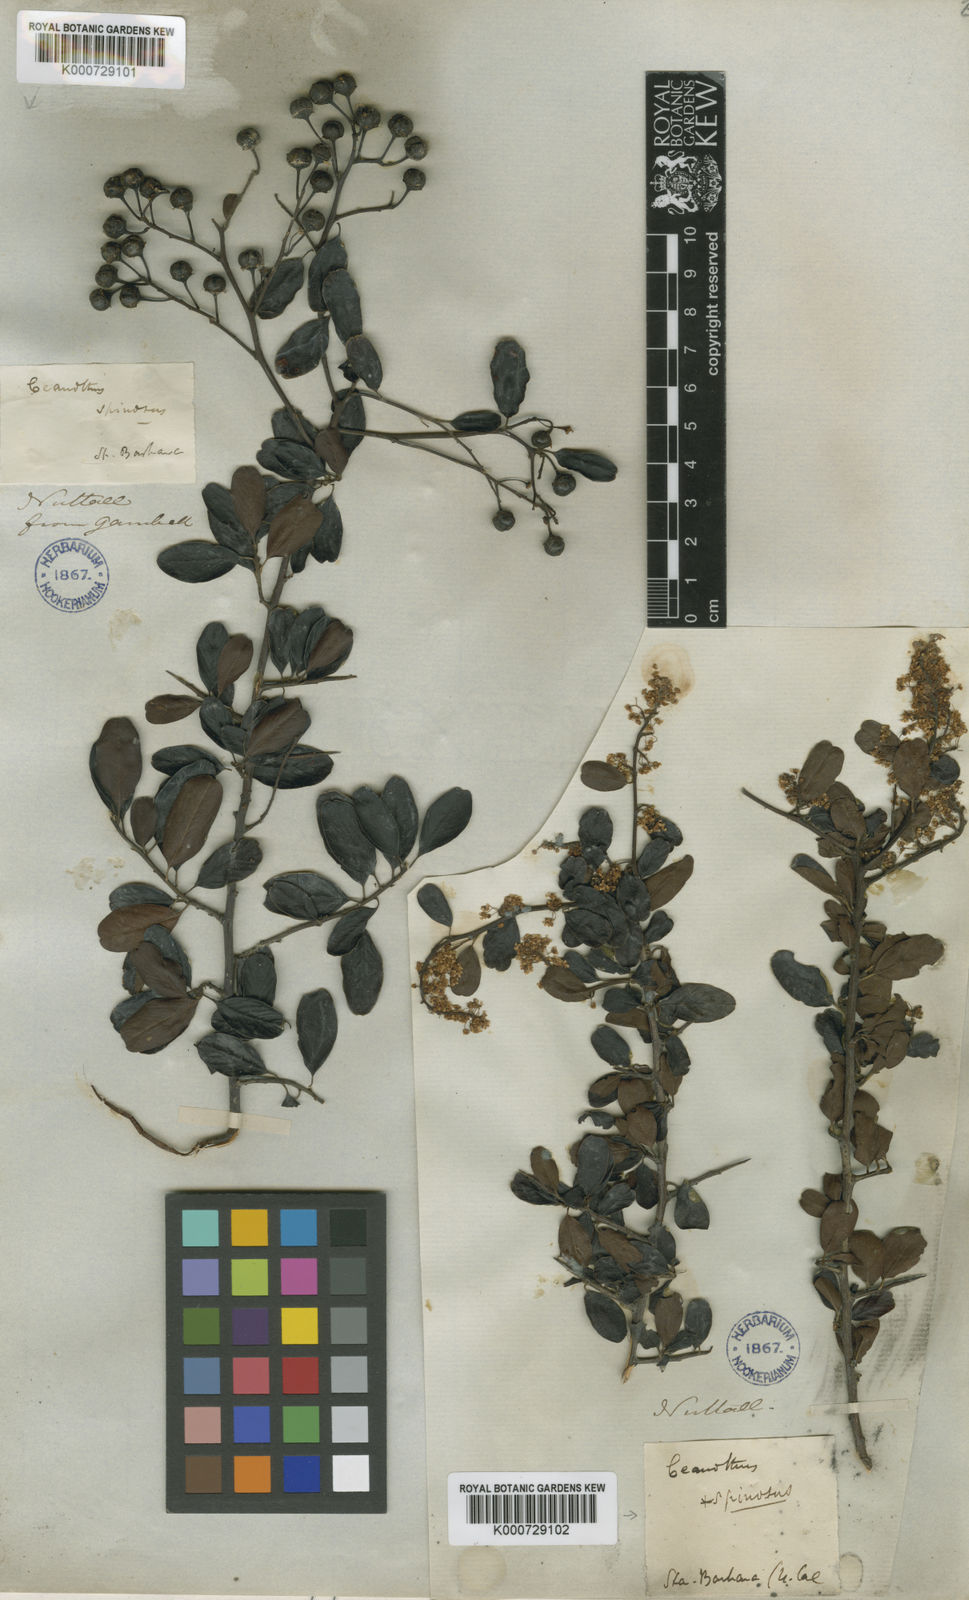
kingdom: Plantae
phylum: Tracheophyta
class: Magnoliopsida
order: Rosales
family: Rhamnaceae
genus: Ceanothus
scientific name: Ceanothus spinosus
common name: Greenbark whitethorn
